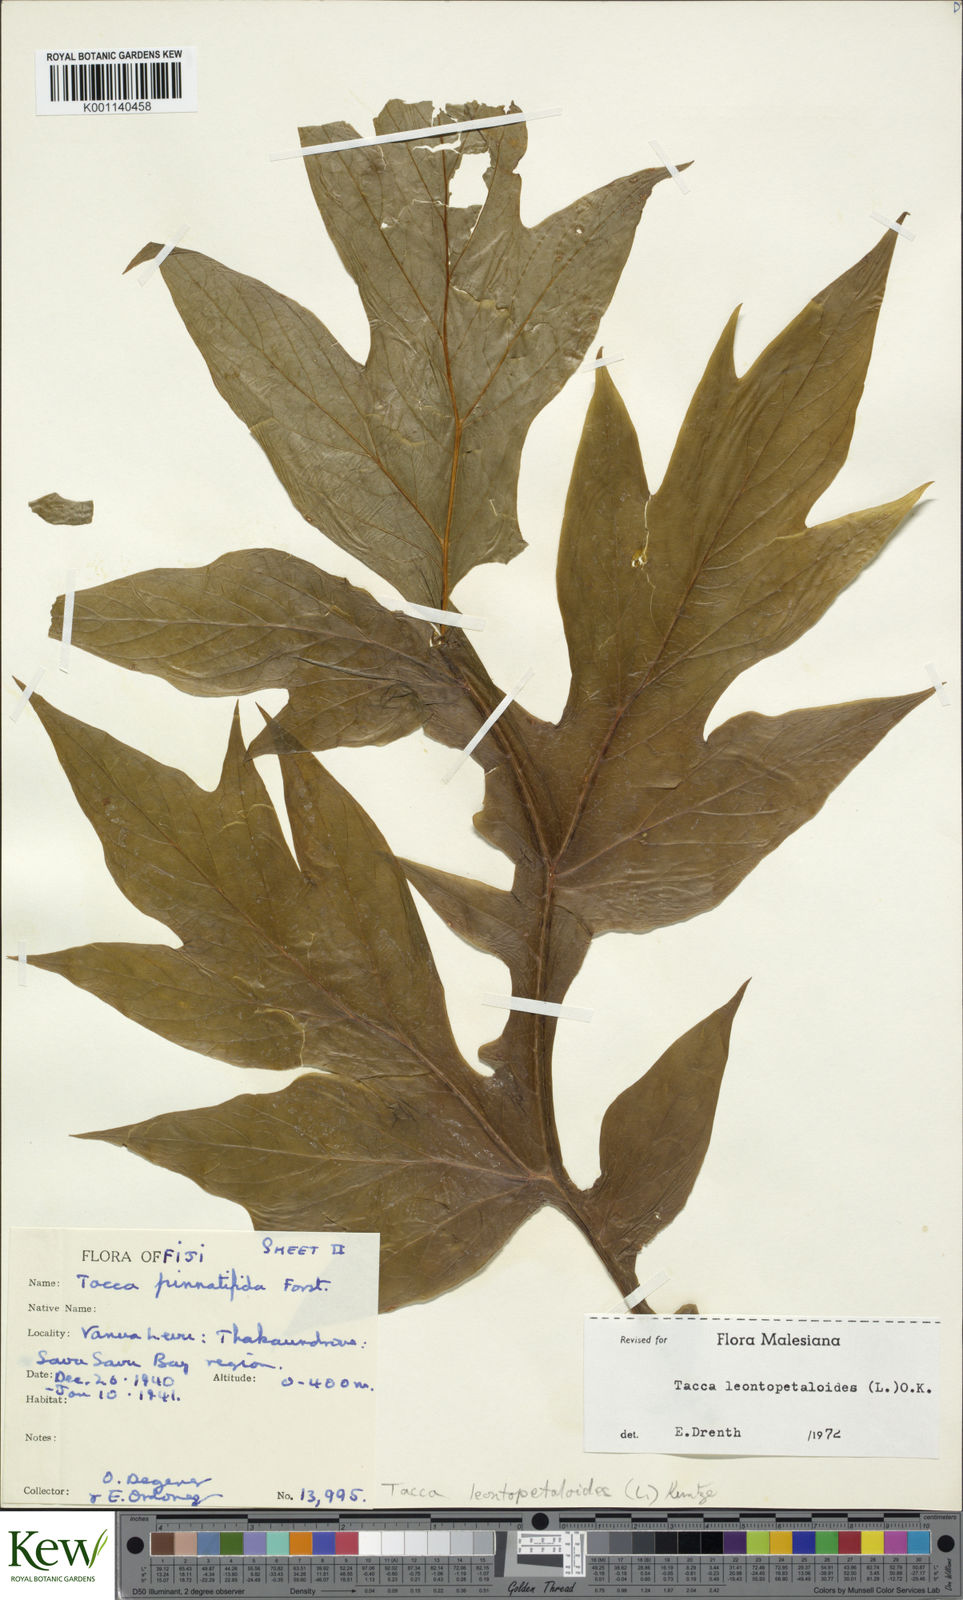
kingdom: Plantae
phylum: Tracheophyta
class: Liliopsida
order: Dioscoreales
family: Dioscoreaceae
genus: Tacca
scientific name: Tacca leontopetaloides
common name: Arrowroot
